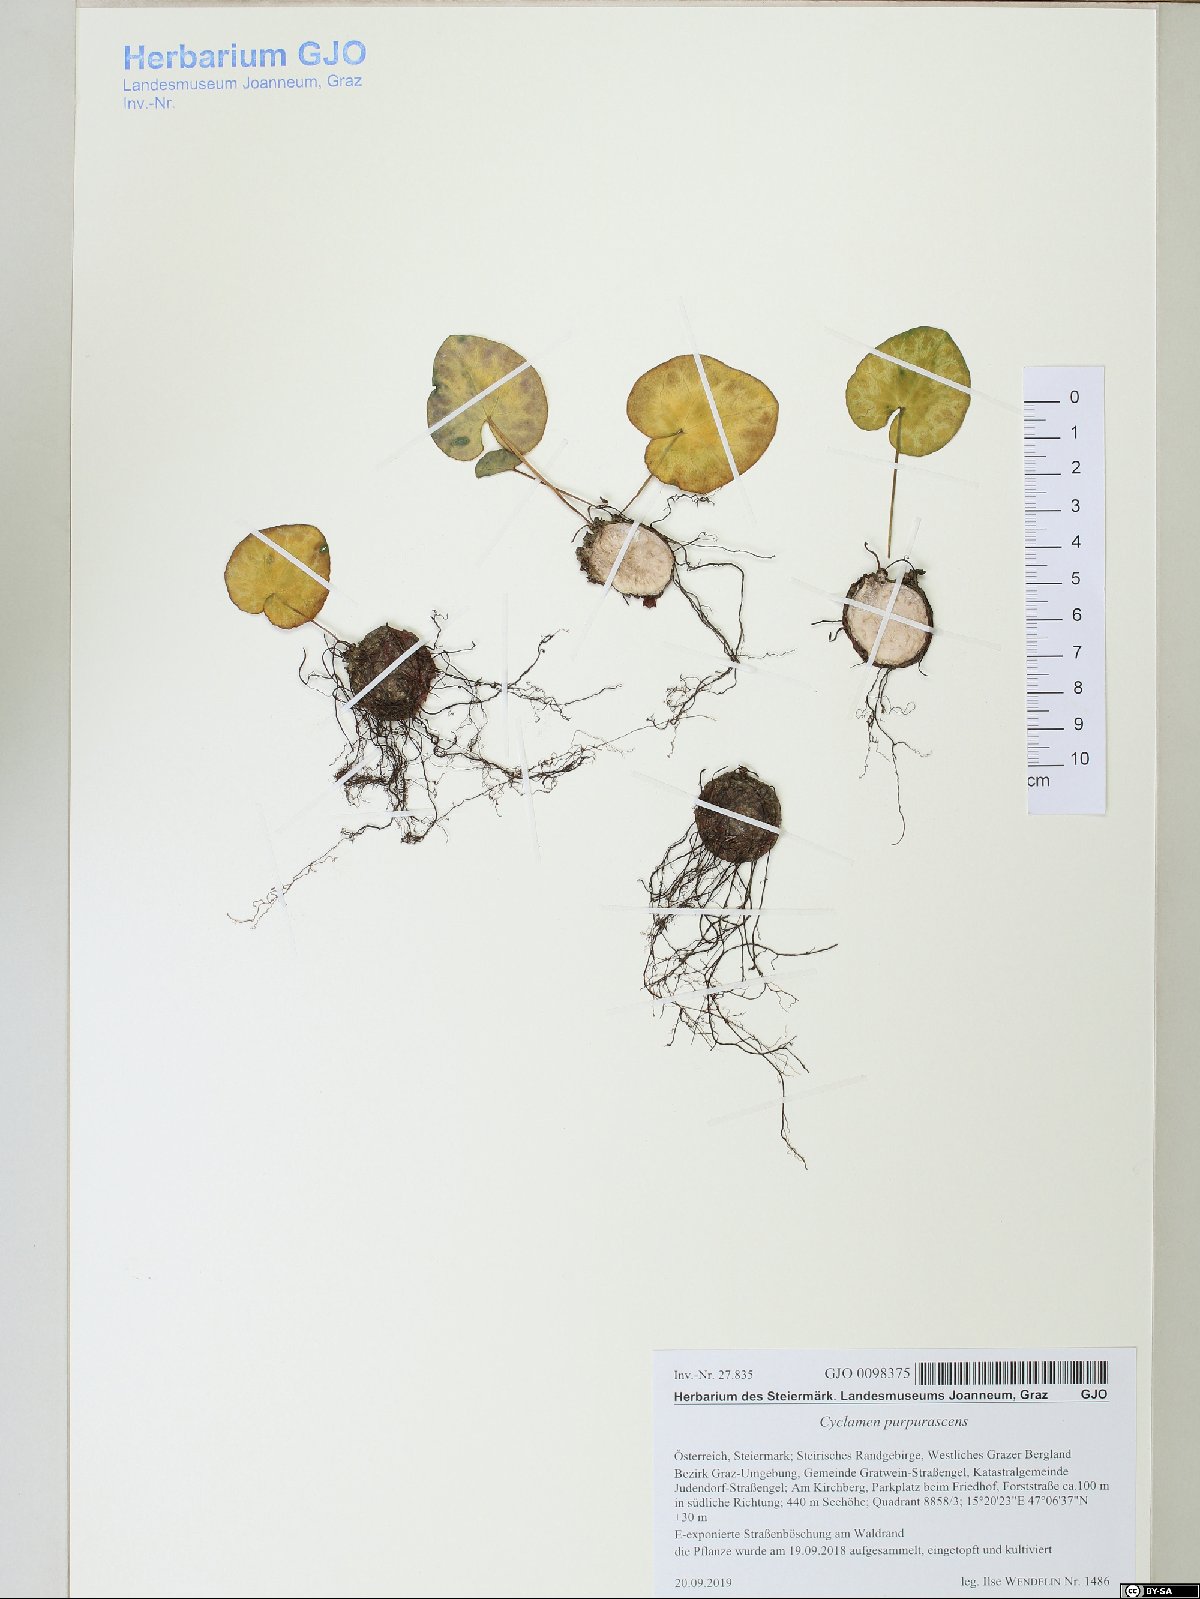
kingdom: Plantae
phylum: Tracheophyta
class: Magnoliopsida
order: Ericales
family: Primulaceae
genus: Cyclamen
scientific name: Cyclamen purpurascens
